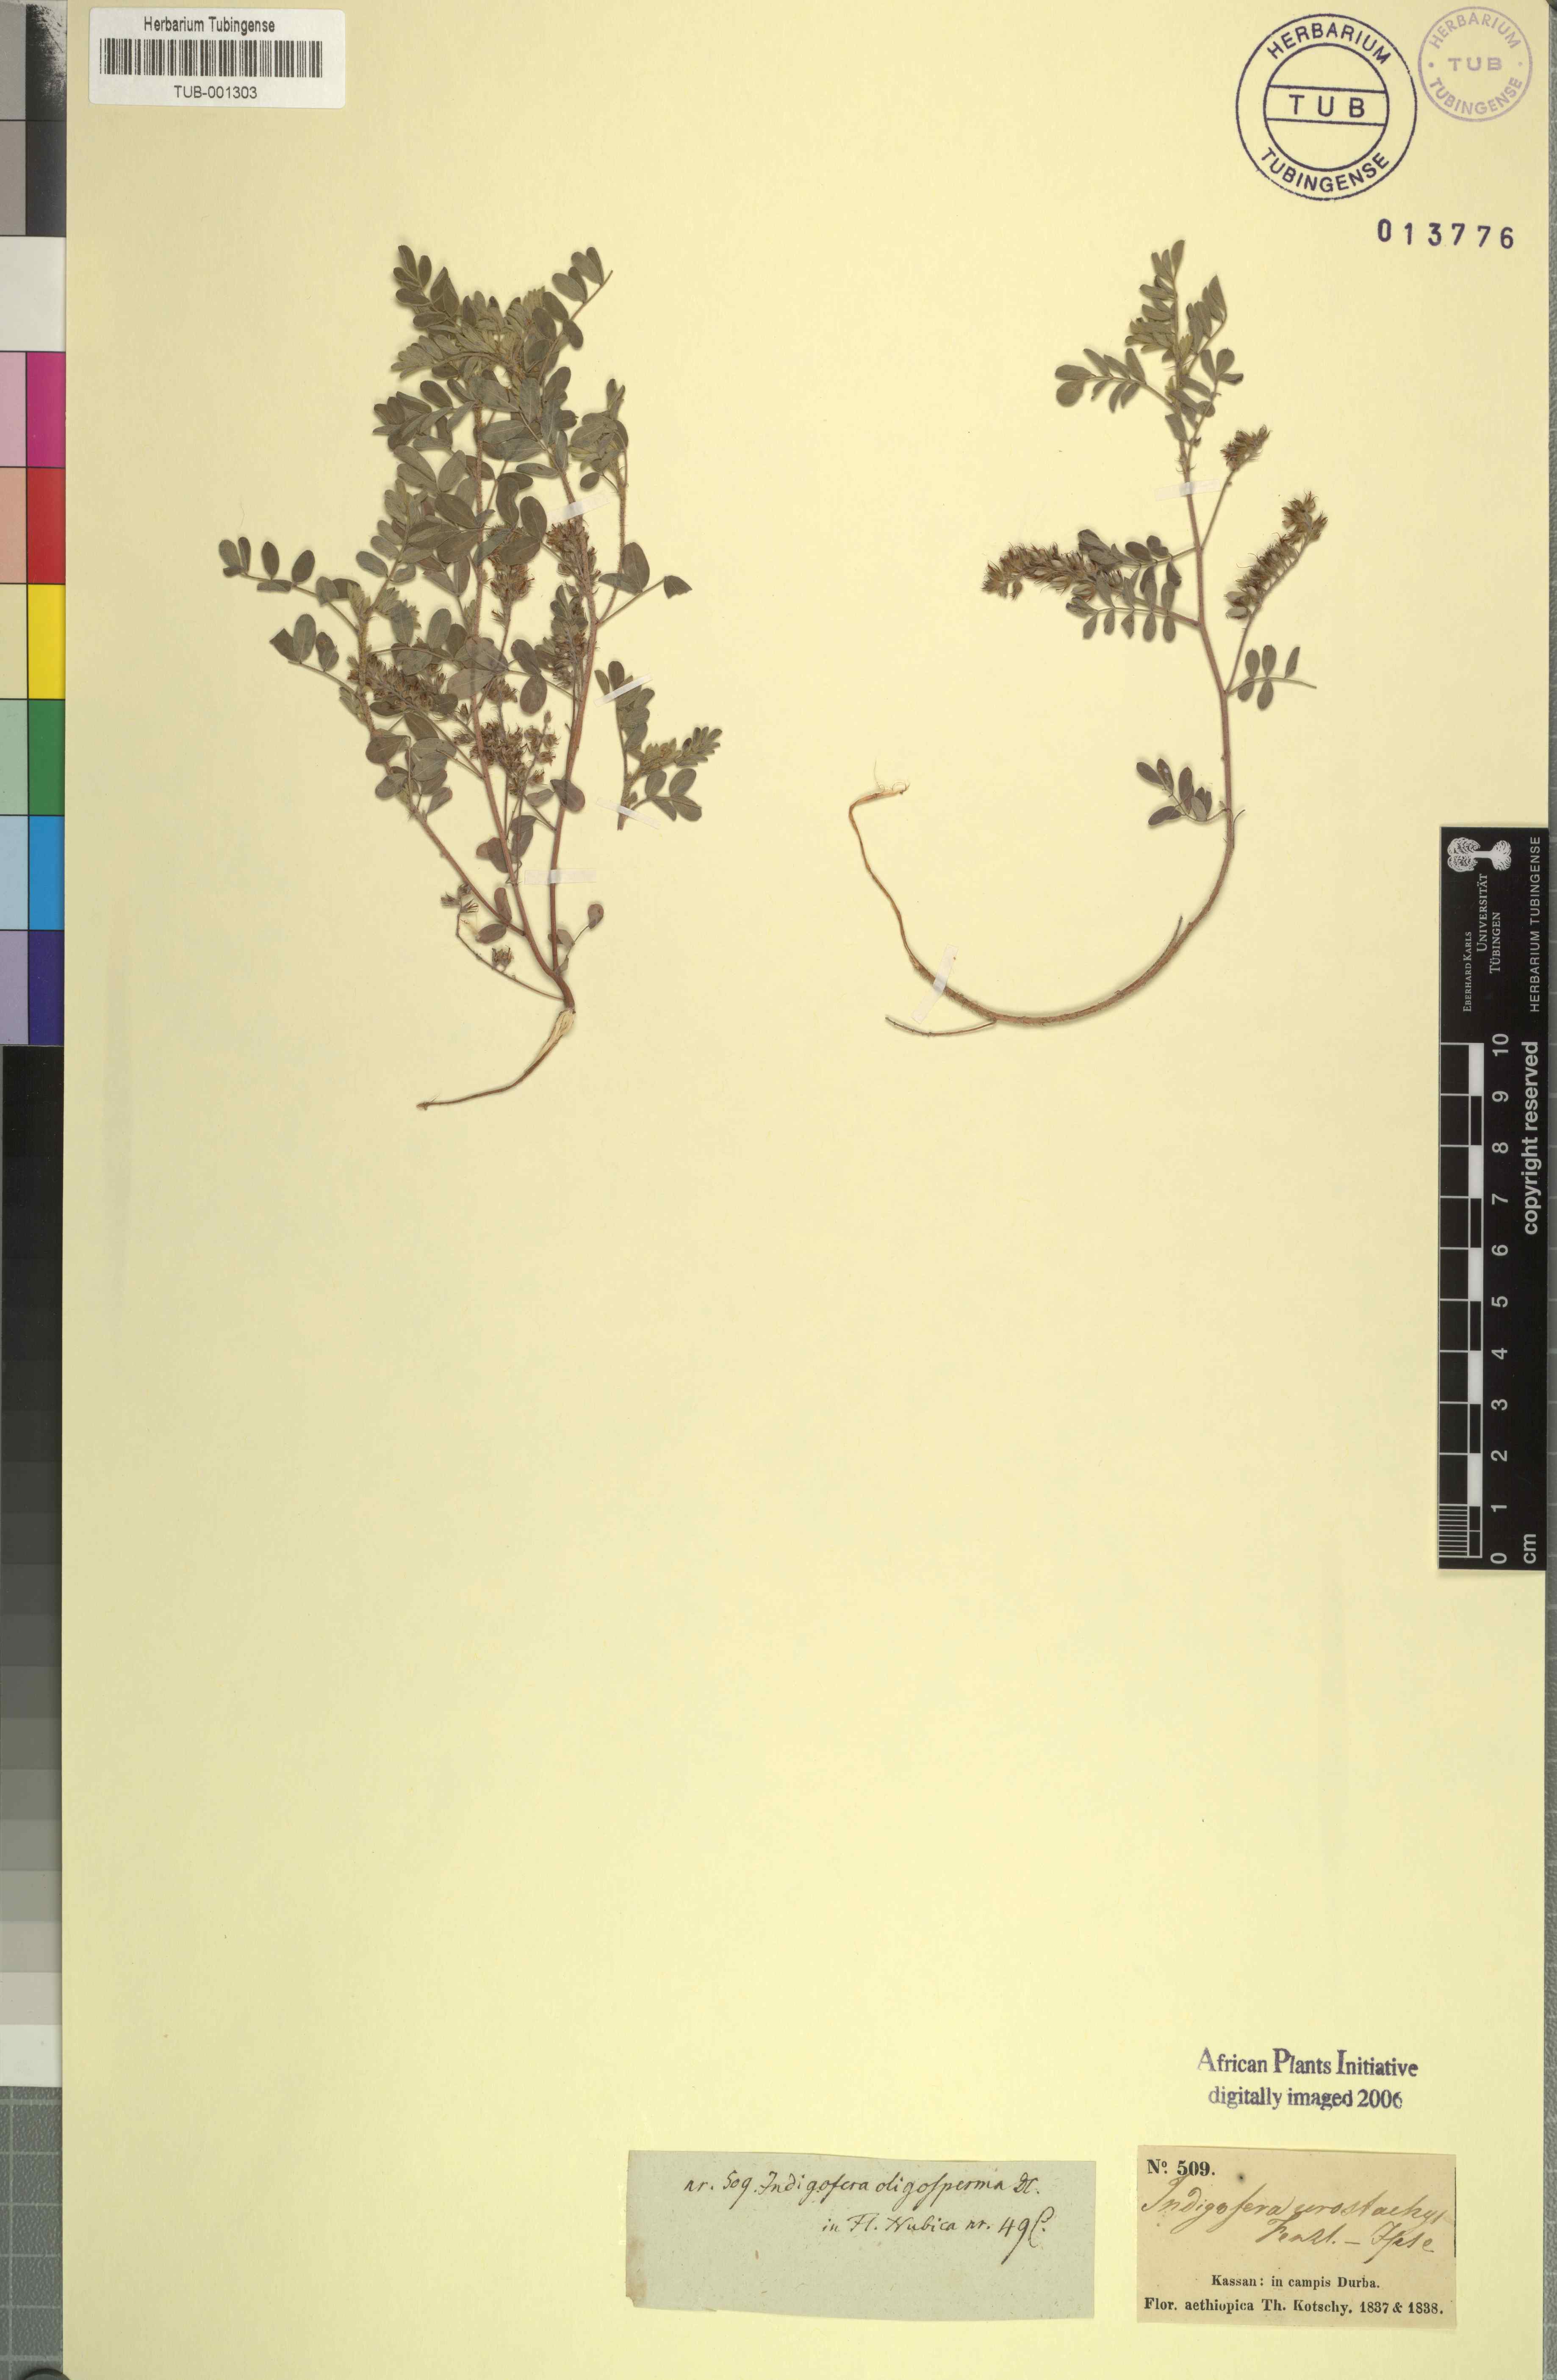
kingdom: Plantae
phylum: Tracheophyta
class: Magnoliopsida
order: Fabales
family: Fabaceae
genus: Indigofera
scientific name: Indigofera secundiflora
